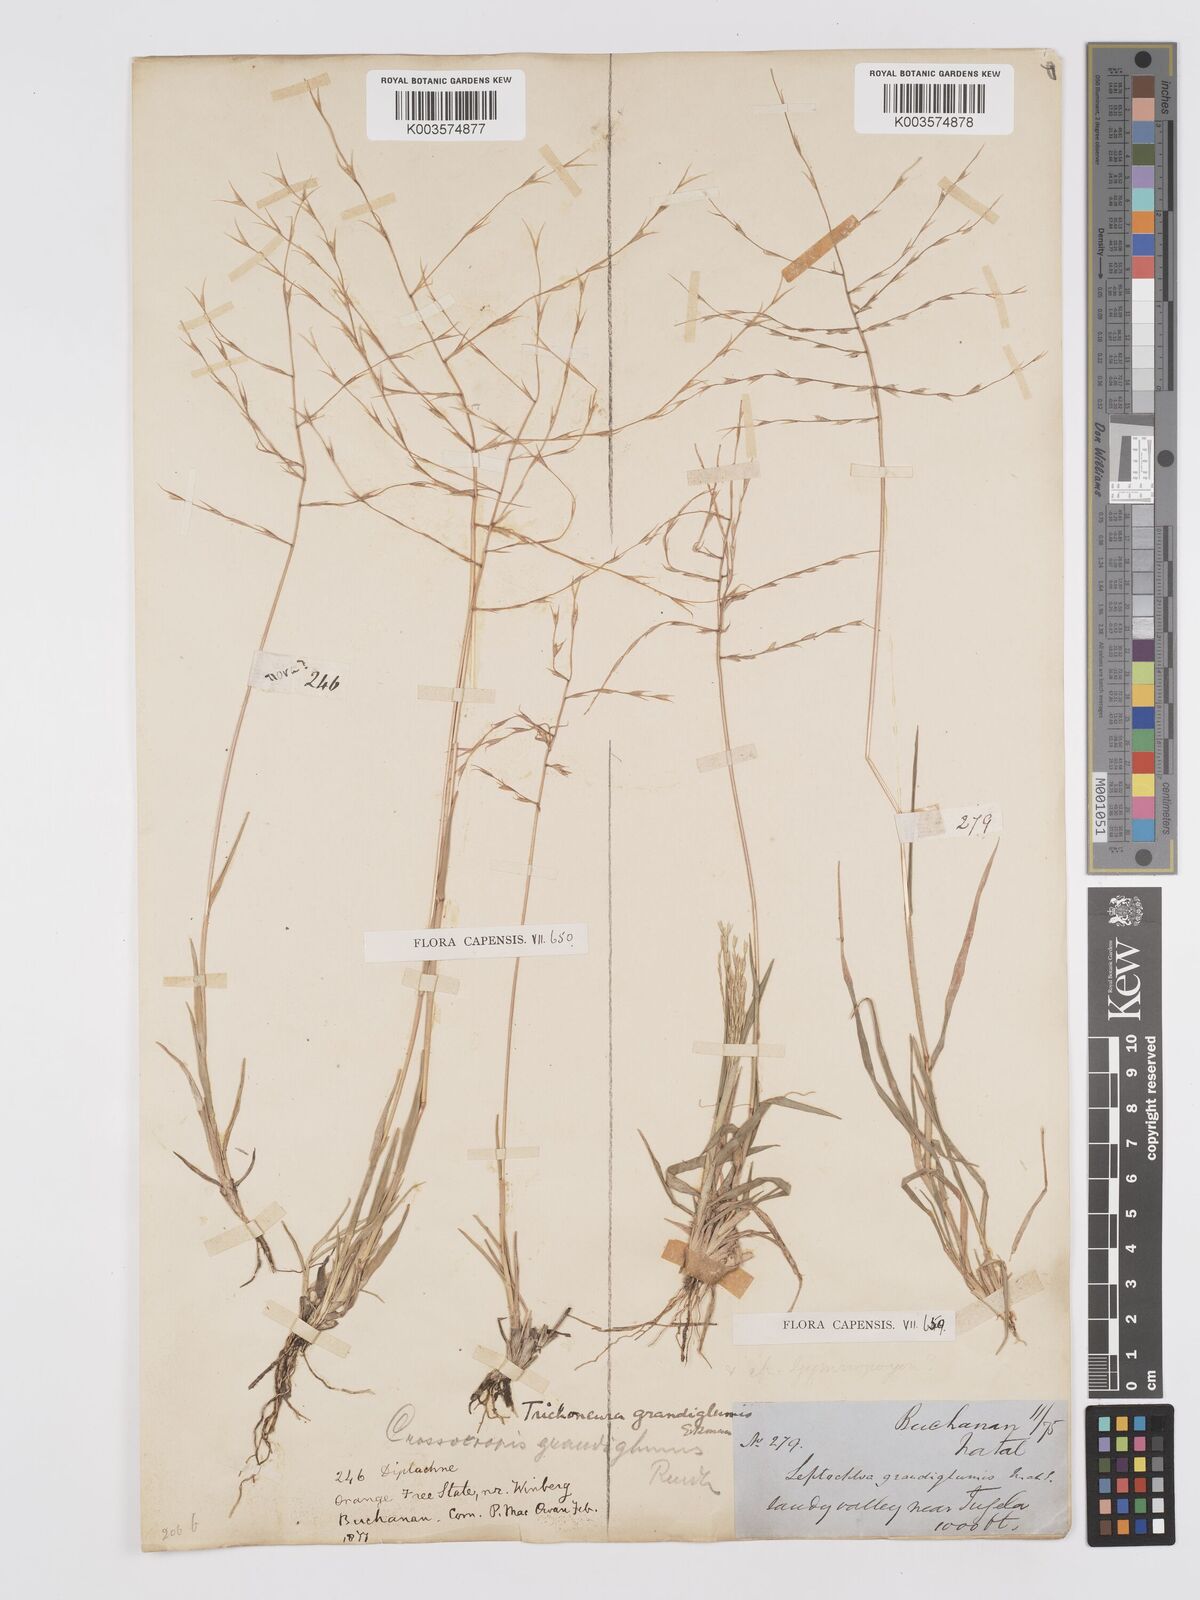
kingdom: Plantae
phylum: Tracheophyta
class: Liliopsida
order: Poales
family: Poaceae
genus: Trichoneura
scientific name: Trichoneura grandiglumis
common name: Rolling grass
